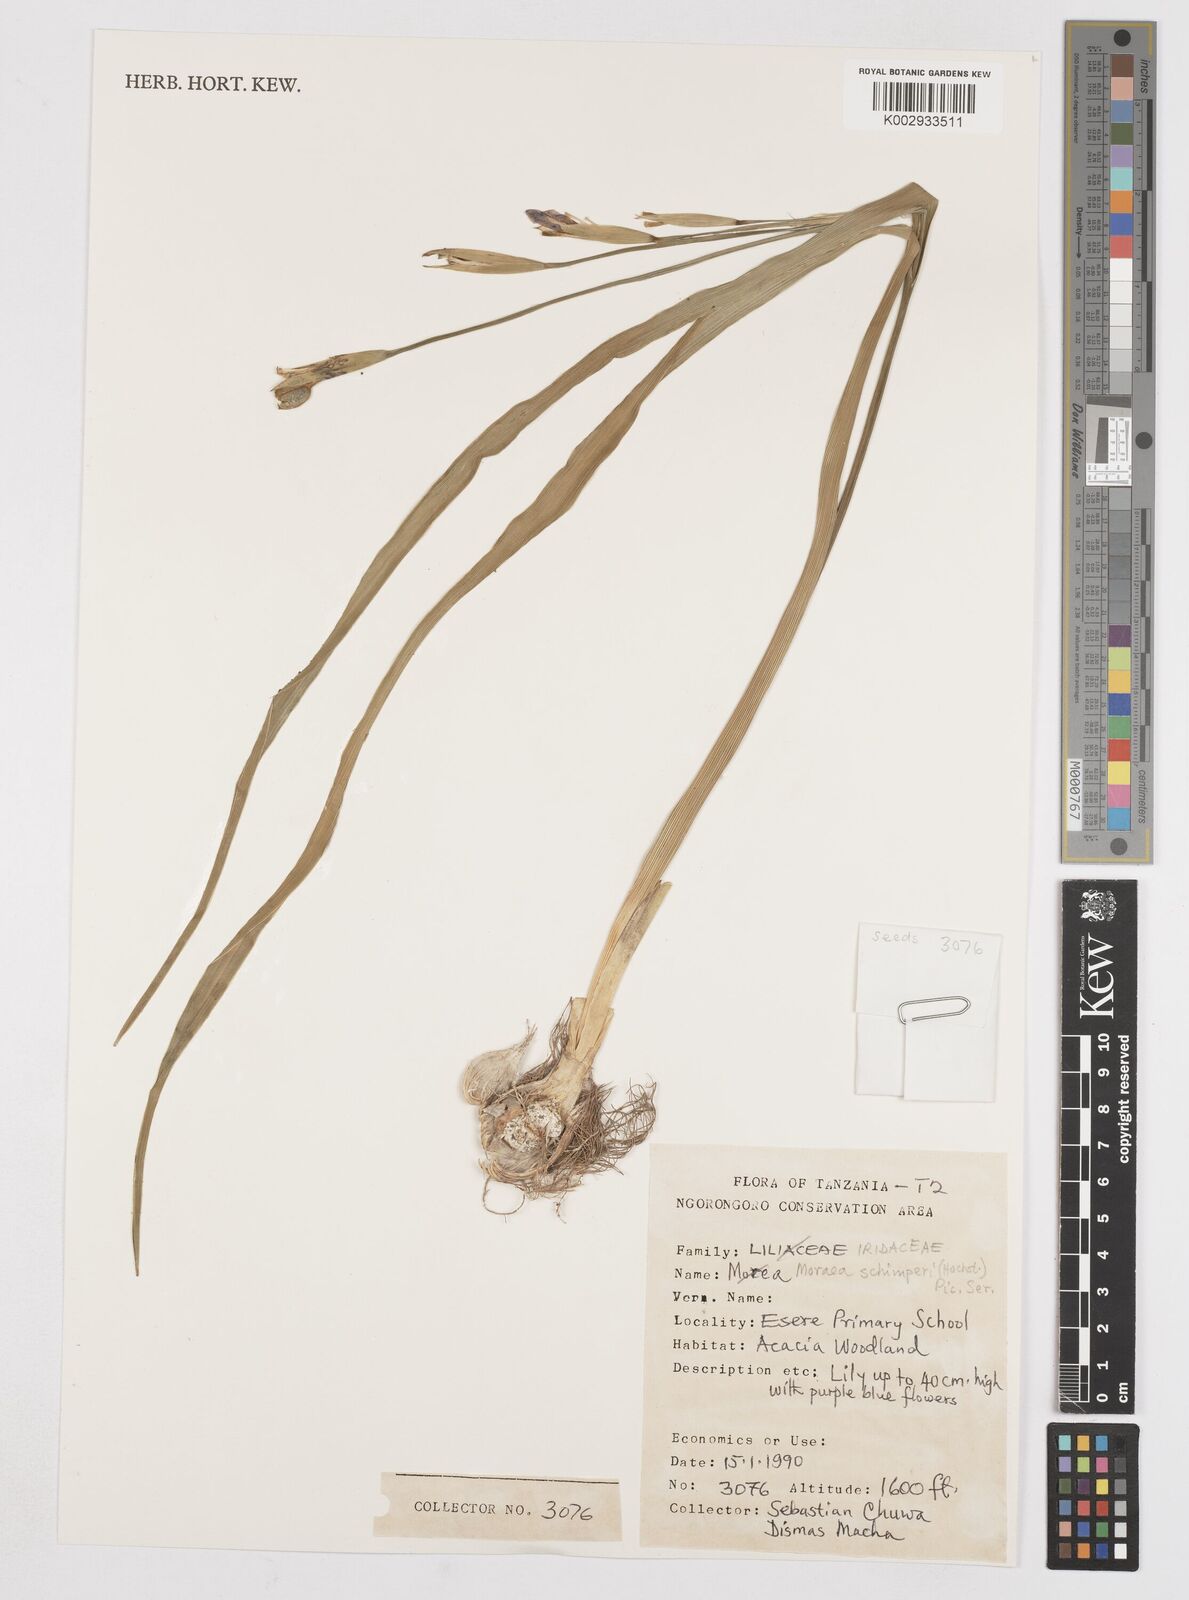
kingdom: Plantae
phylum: Tracheophyta
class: Liliopsida
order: Asparagales
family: Iridaceae
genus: Moraea
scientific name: Moraea schimperi
